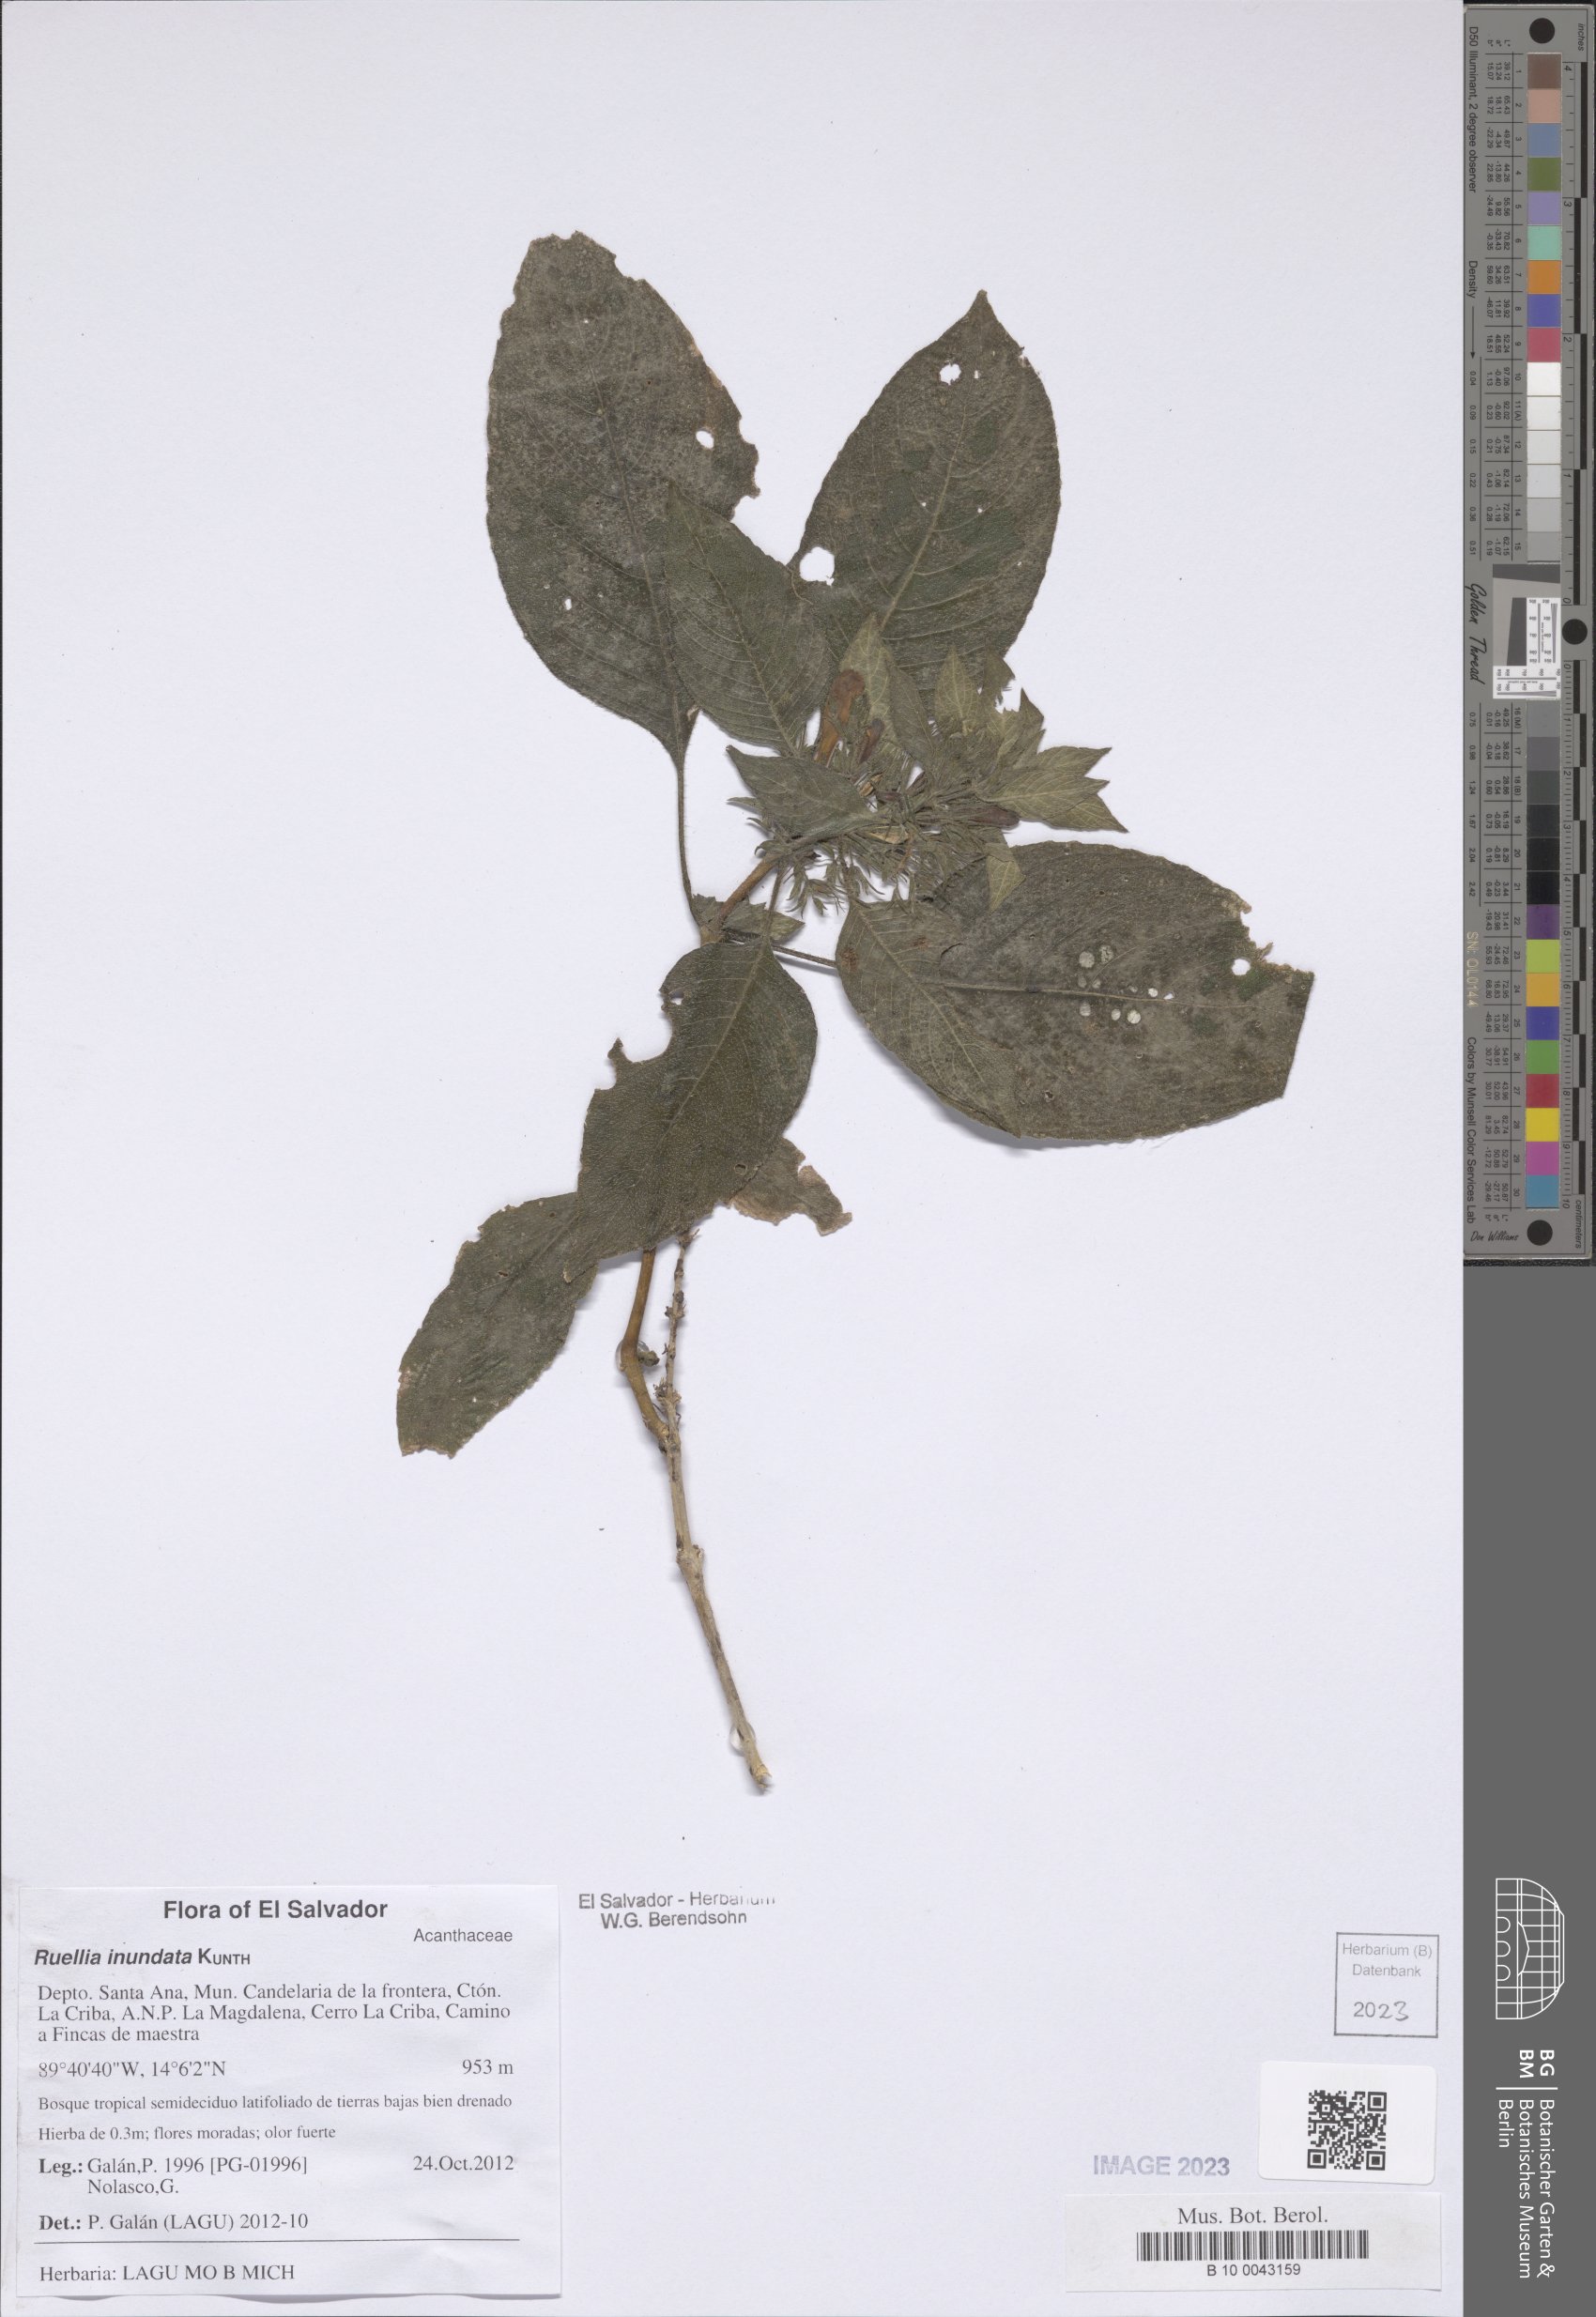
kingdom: Plantae
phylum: Tracheophyta
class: Magnoliopsida
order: Lamiales
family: Acanthaceae
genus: Ruellia
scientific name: Ruellia inundata
